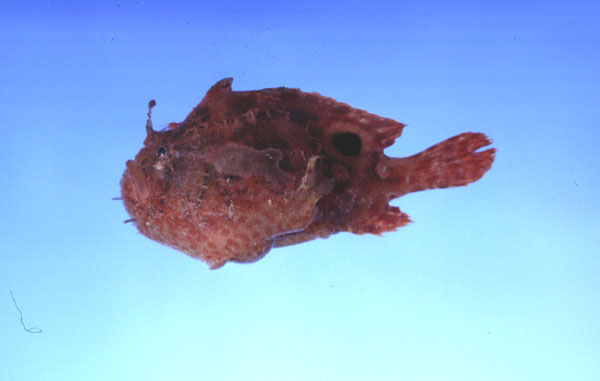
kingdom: Animalia
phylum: Chordata
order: Lophiiformes
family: Antennariidae
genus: Antennatus
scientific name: Antennatus nummifer
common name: Spotfin frogfish
